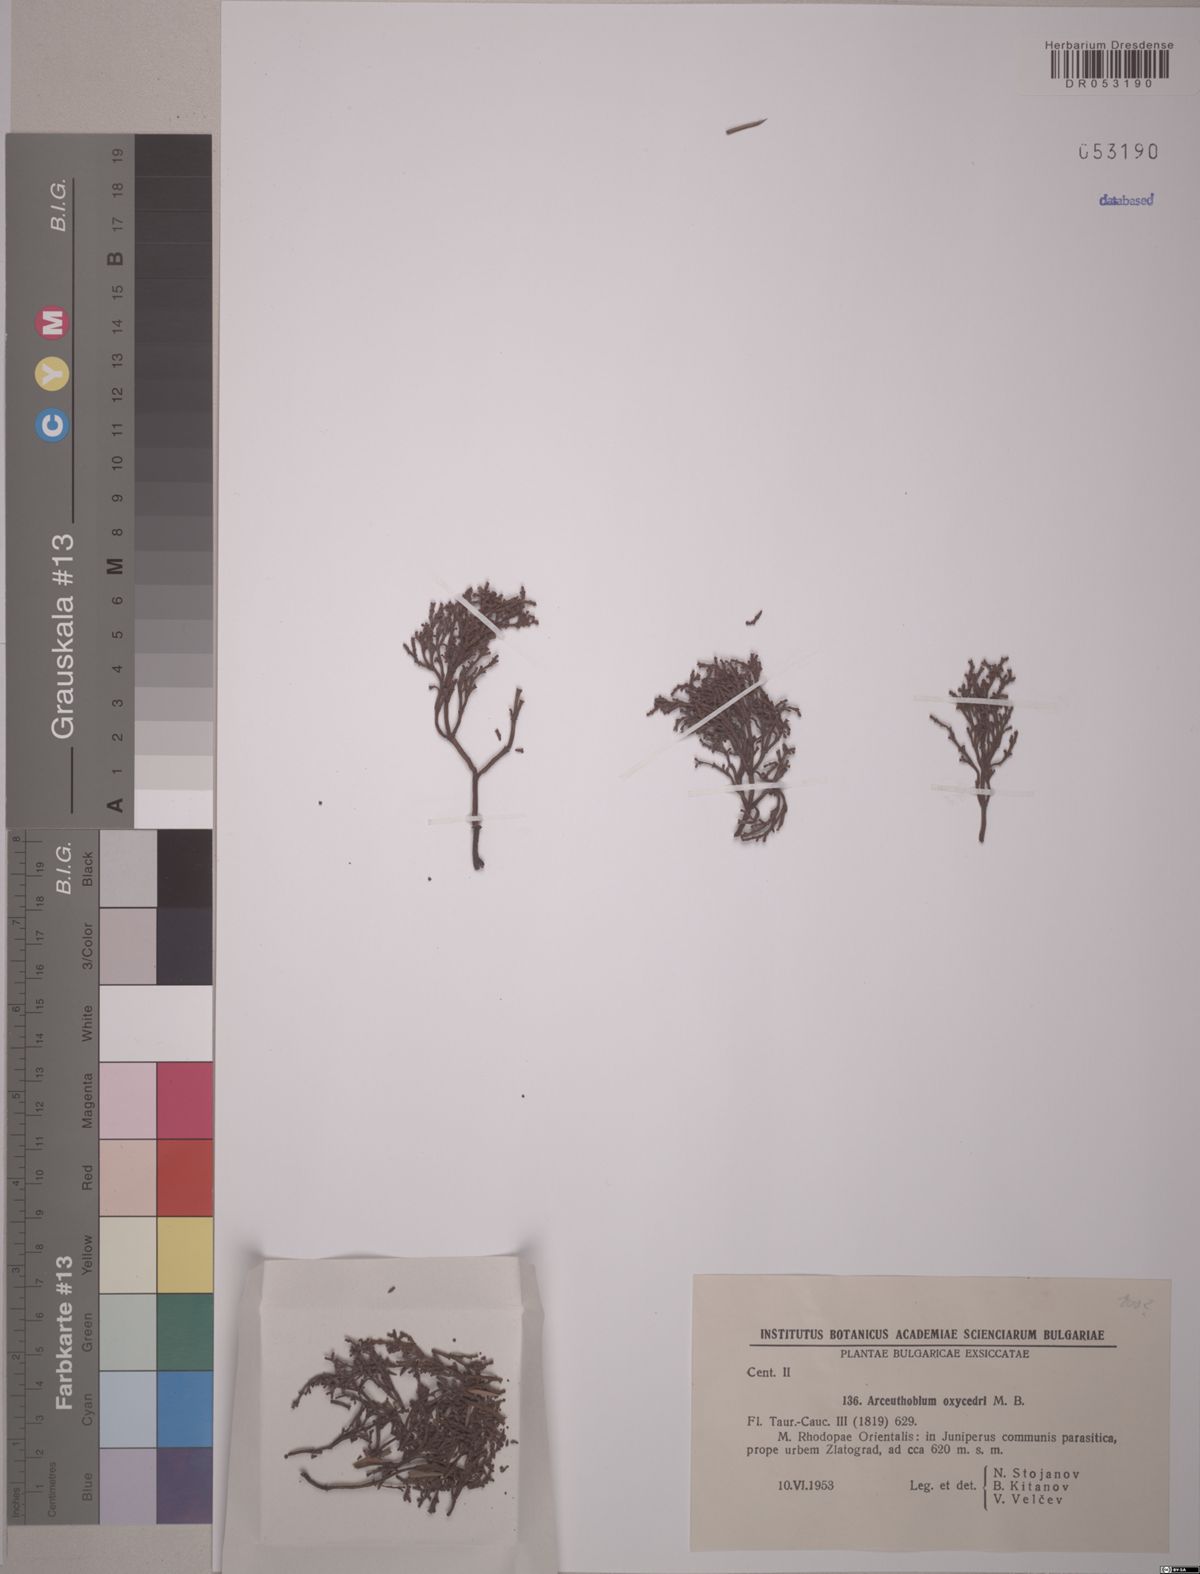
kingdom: Plantae
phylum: Tracheophyta
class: Magnoliopsida
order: Santalales
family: Viscaceae
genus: Arceuthobium
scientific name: Arceuthobium oxycedri
